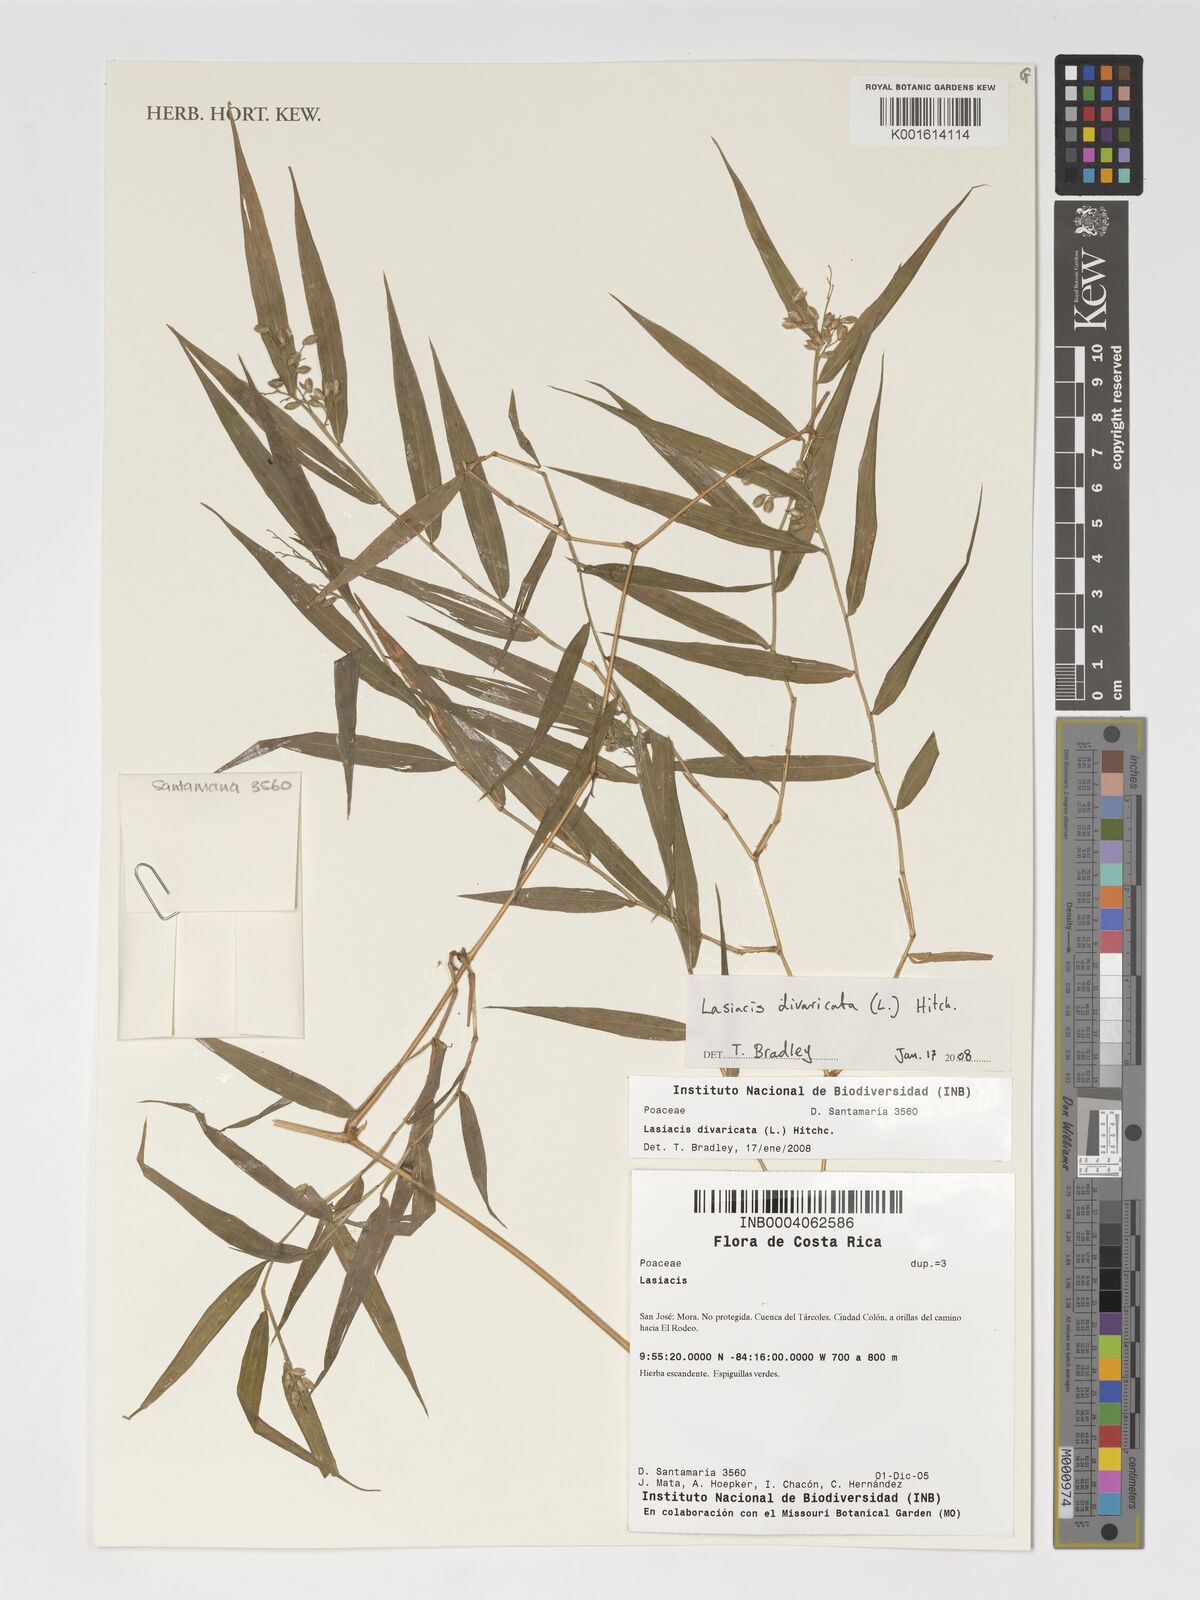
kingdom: Plantae
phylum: Tracheophyta
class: Liliopsida
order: Poales
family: Poaceae
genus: Lasiacis
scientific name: Lasiacis divaricata
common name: Smallcane
